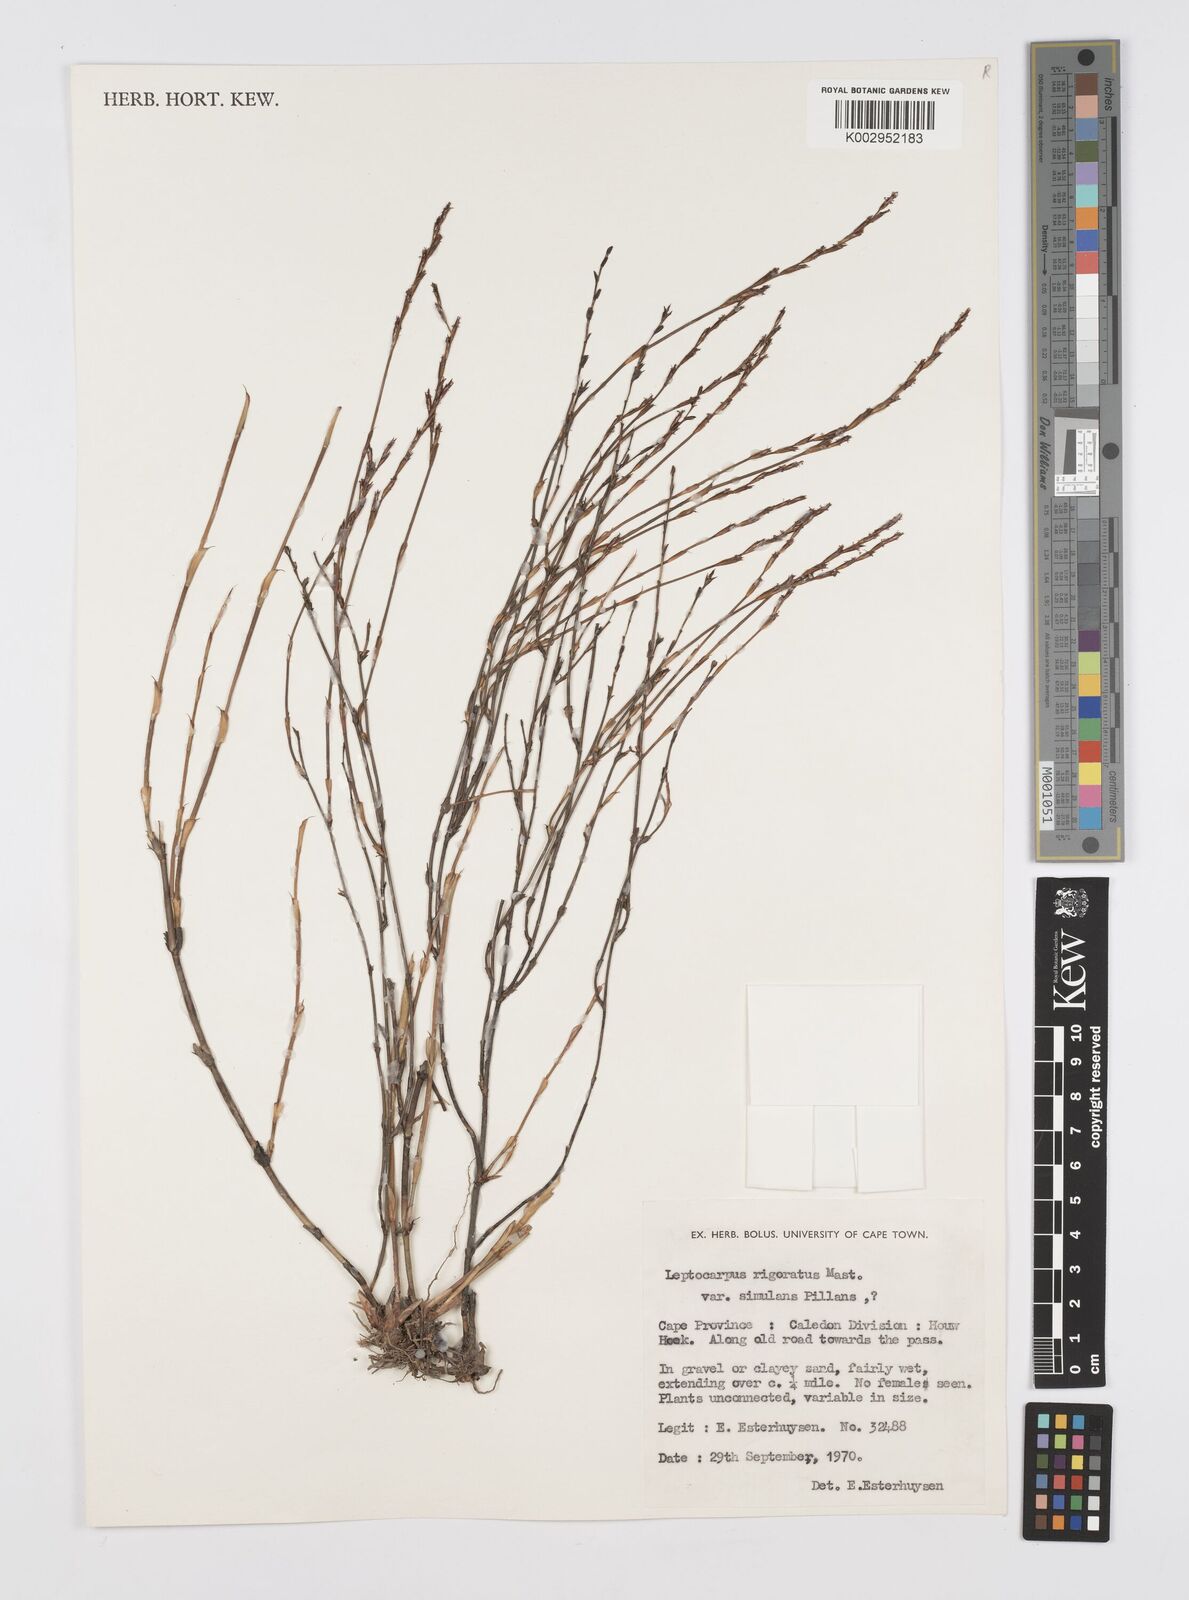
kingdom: Plantae
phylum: Tracheophyta
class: Liliopsida
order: Poales
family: Restionaceae
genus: Restio
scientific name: Restio rigoratus
